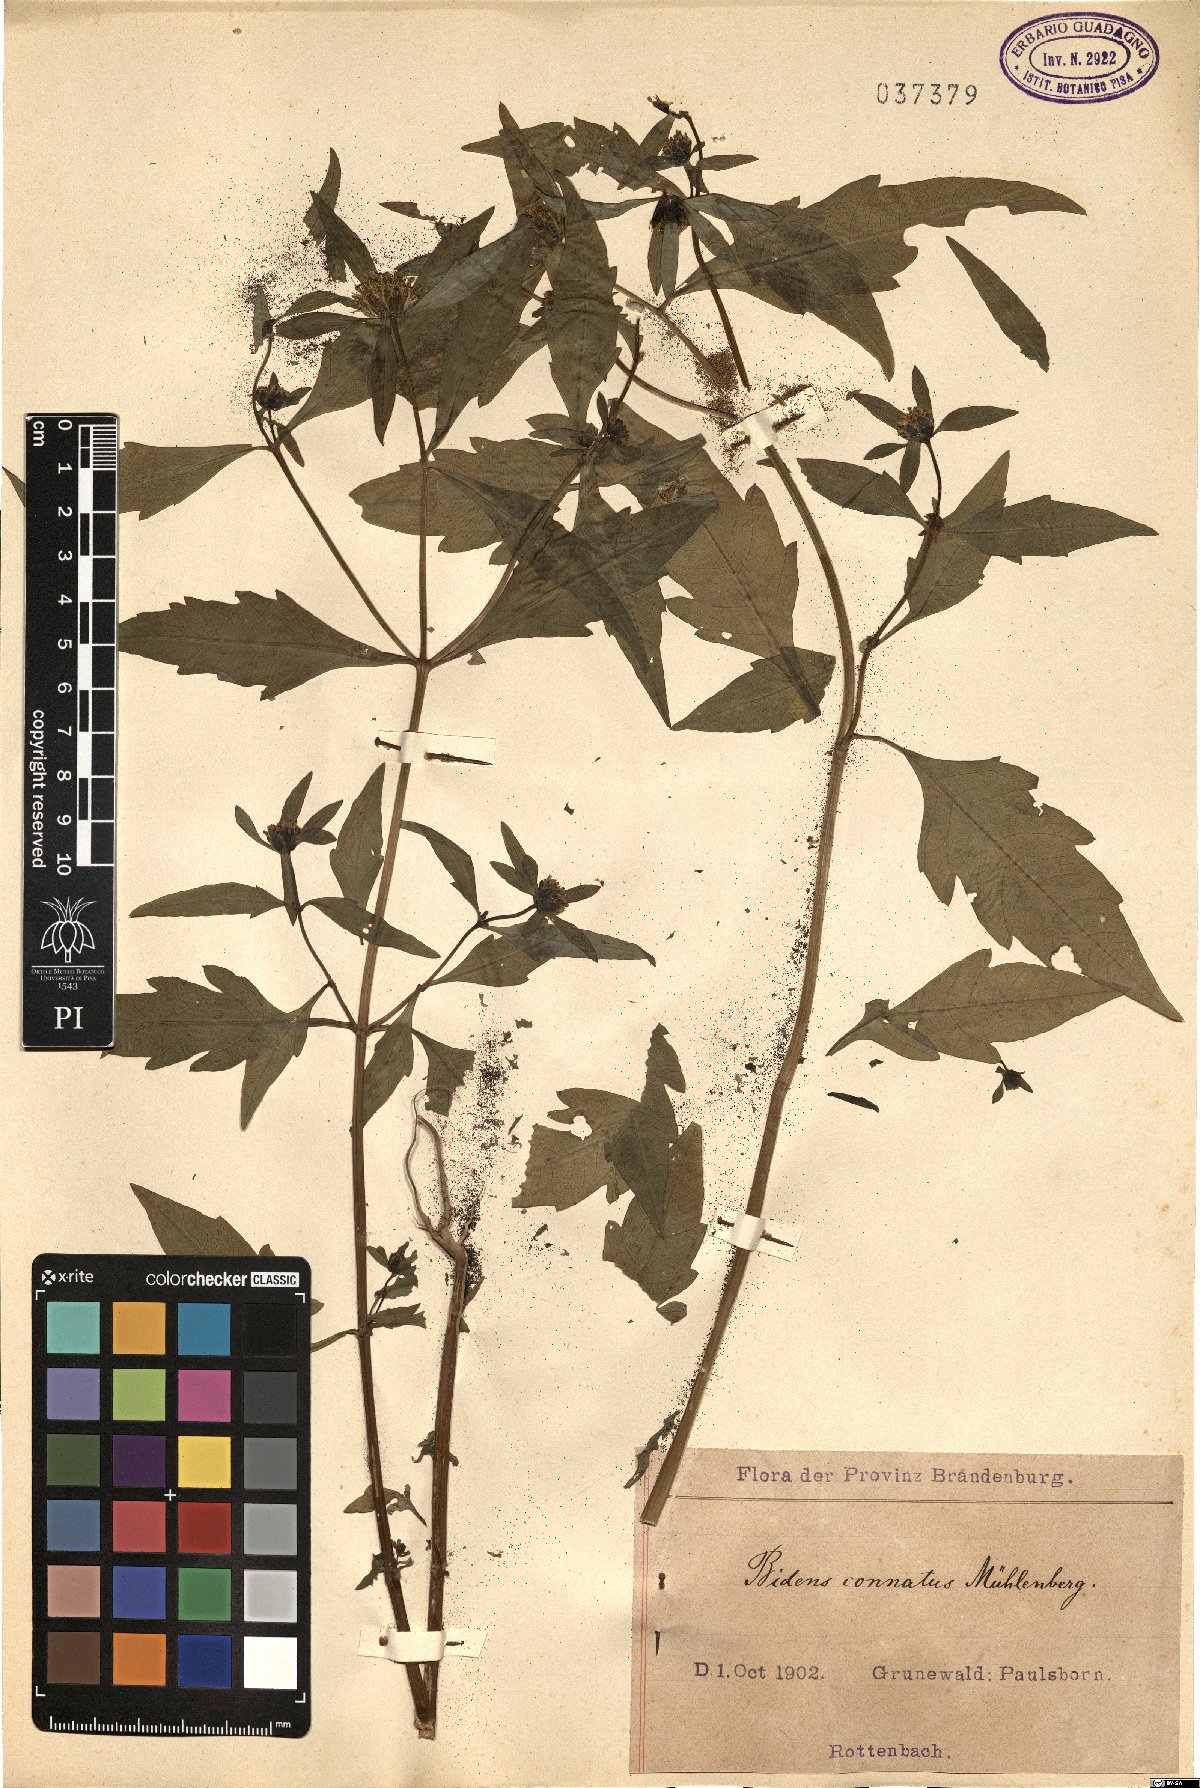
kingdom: Plantae
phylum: Tracheophyta
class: Magnoliopsida
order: Asterales
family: Asteraceae
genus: Bidens
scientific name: Bidens connata
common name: London bur-marigold
